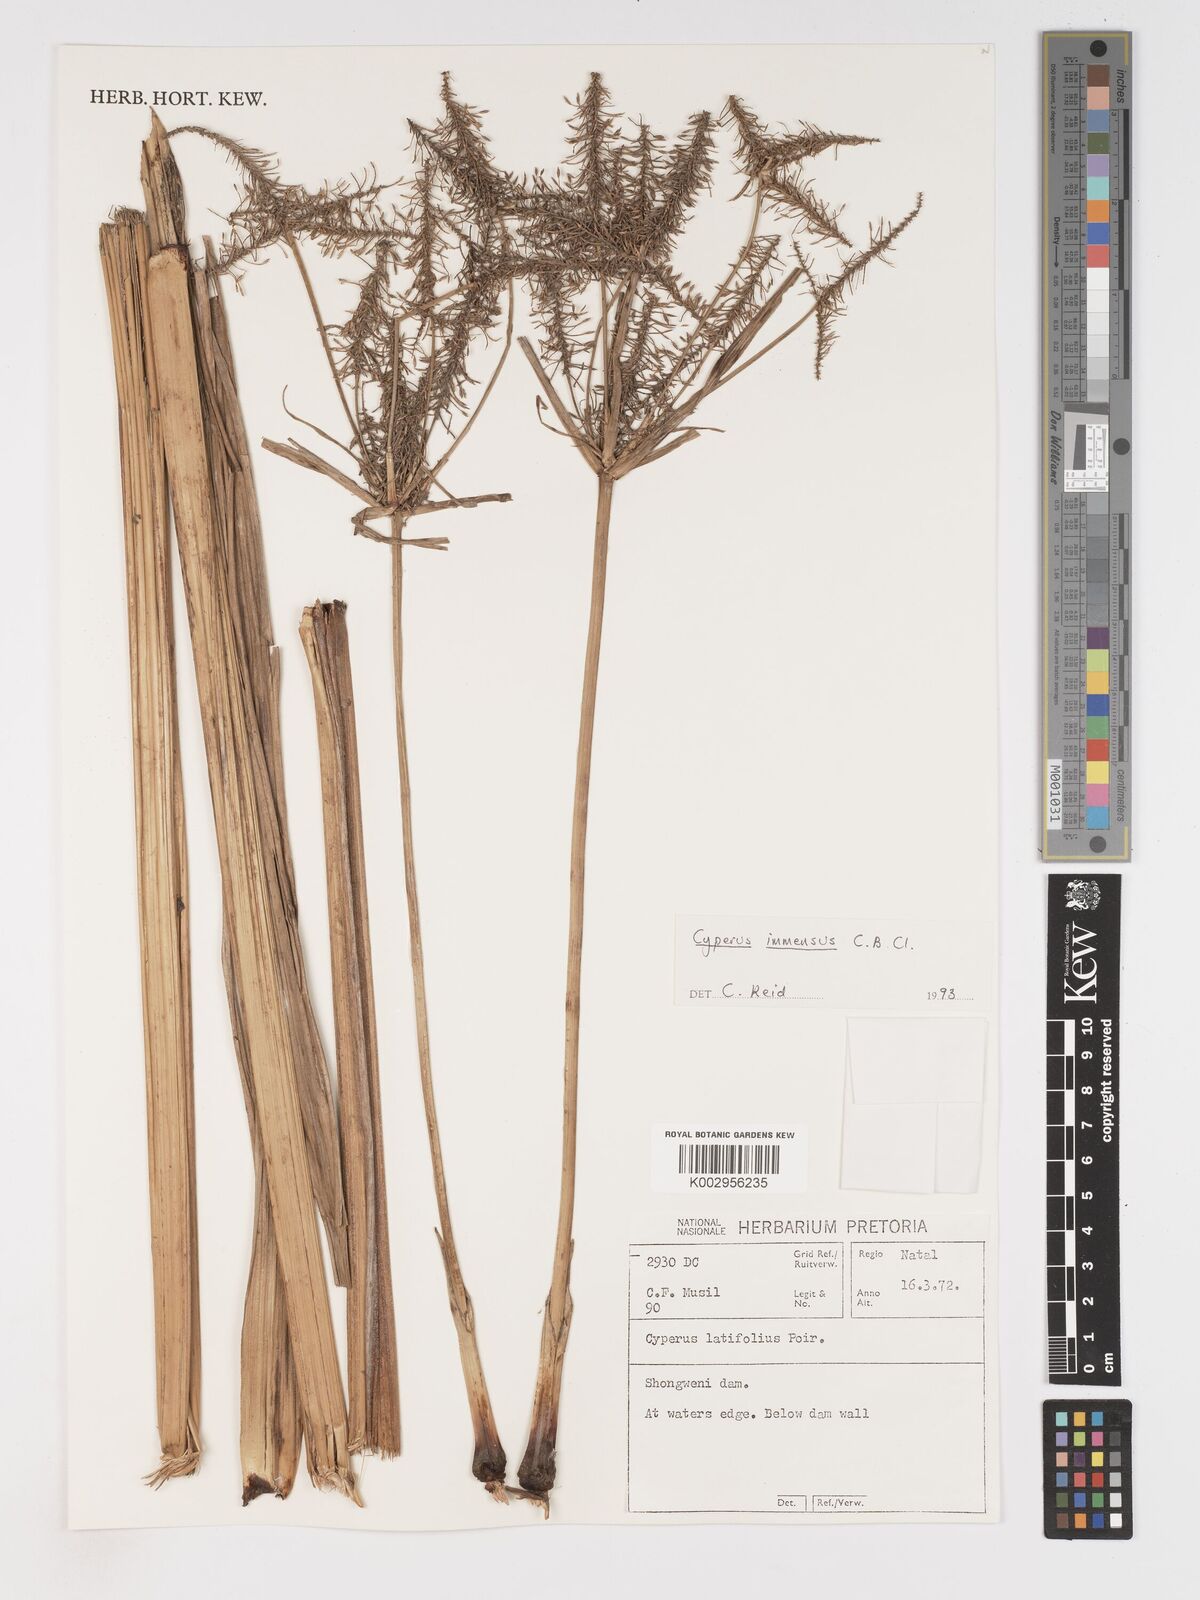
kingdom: Plantae
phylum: Tracheophyta
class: Liliopsida
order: Poales
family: Cyperaceae
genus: Cyperus
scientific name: Cyperus dives
